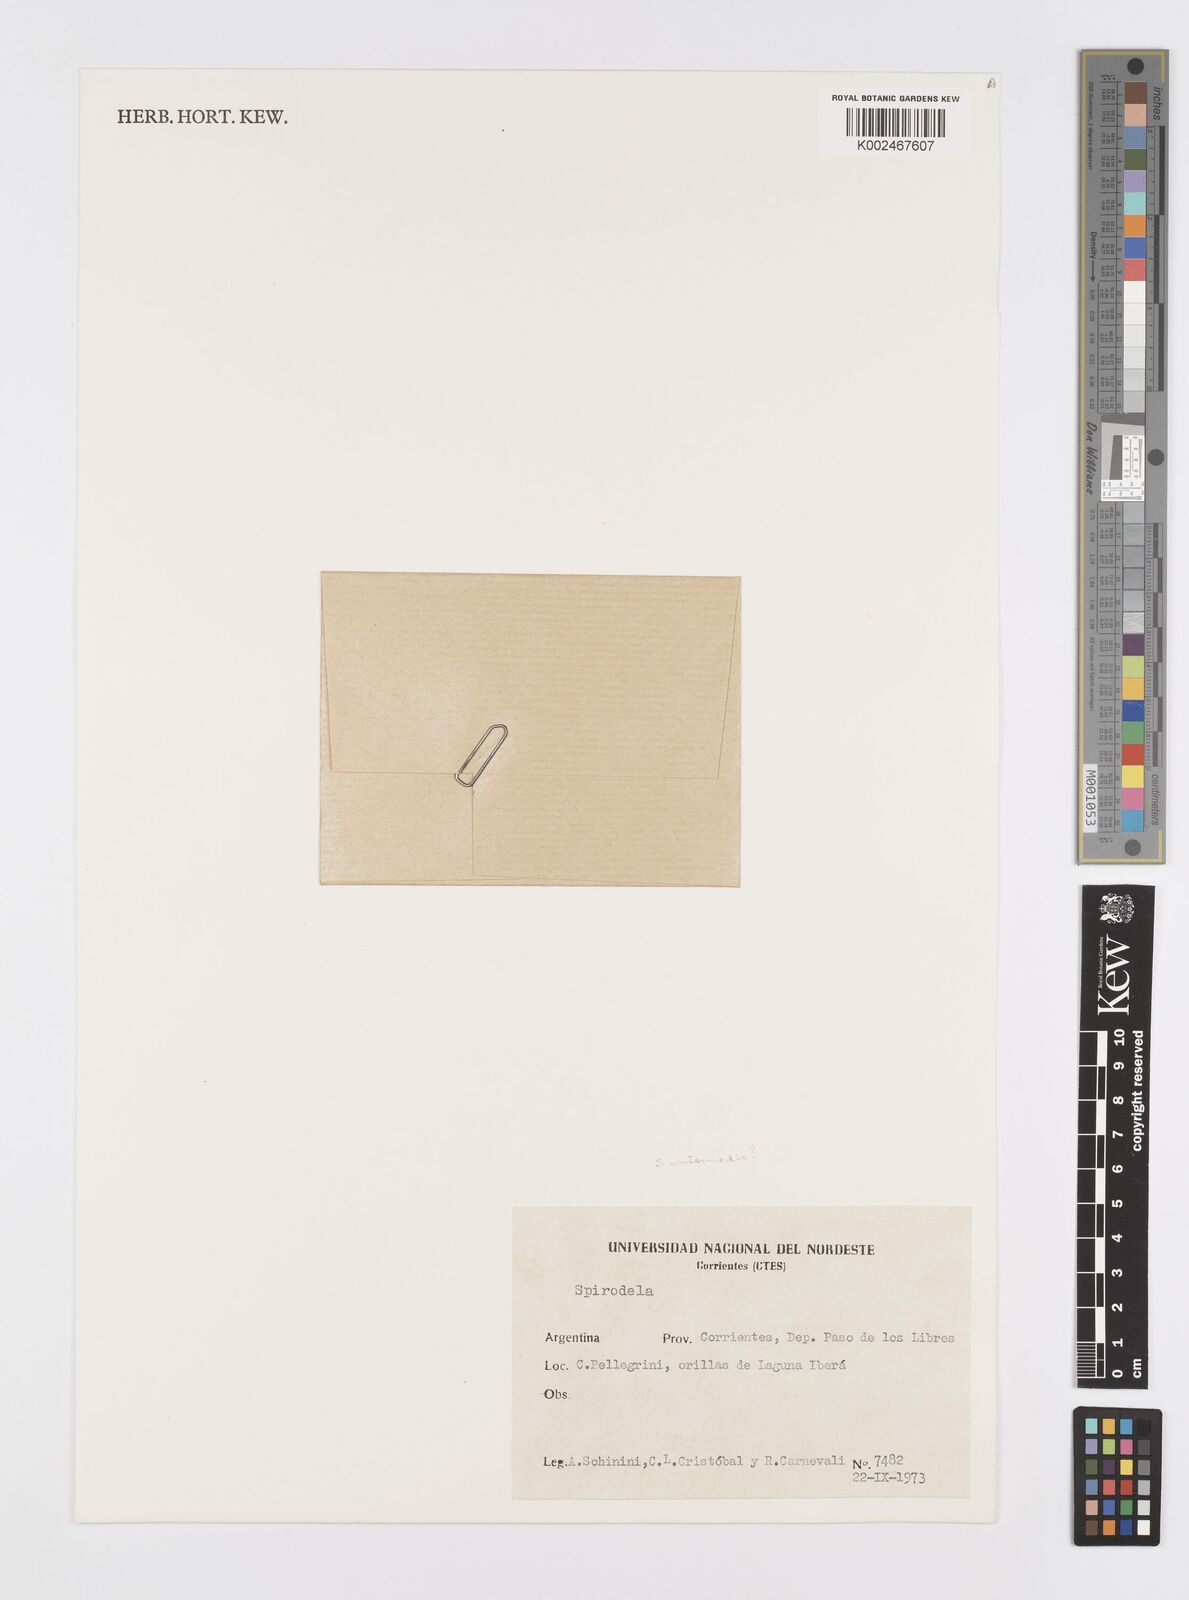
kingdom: Plantae
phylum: Tracheophyta
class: Liliopsida
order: Alismatales
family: Araceae
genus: Spirodela
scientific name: Spirodela
